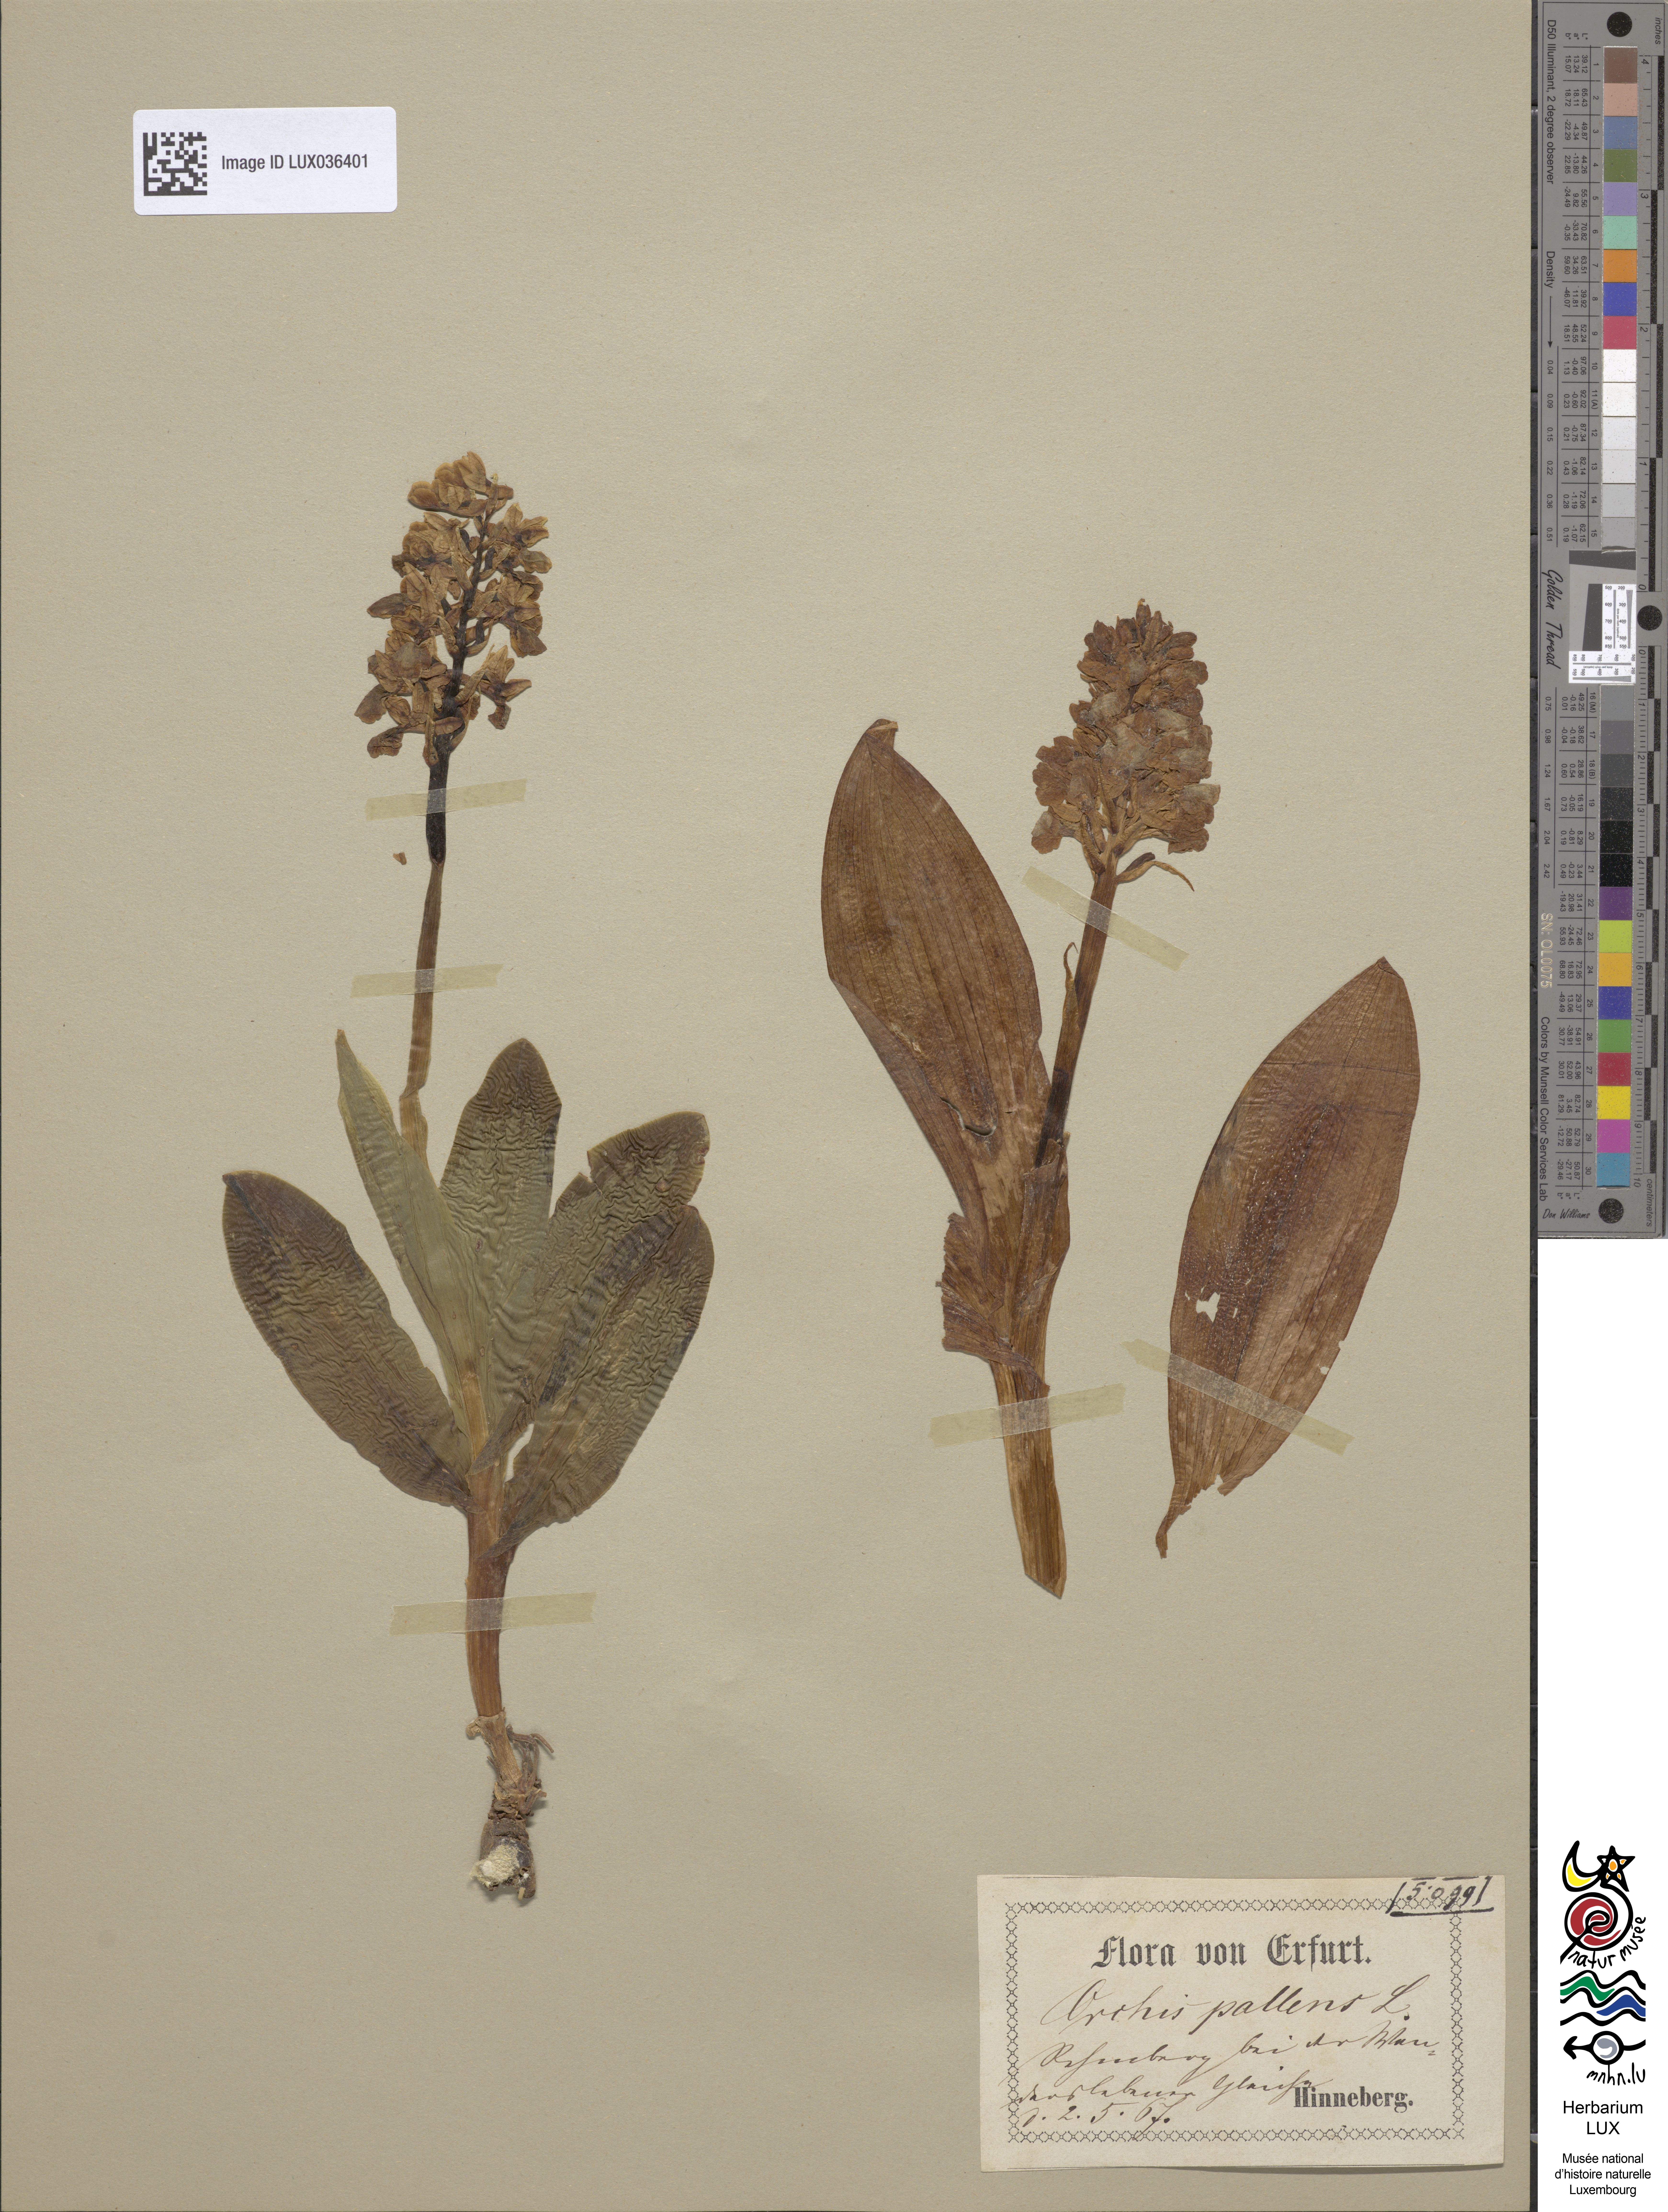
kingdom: Plantae
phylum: Tracheophyta
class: Liliopsida
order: Asparagales
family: Orchidaceae
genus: Orchis
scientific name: Orchis pallens
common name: Pale-flowered orchid
